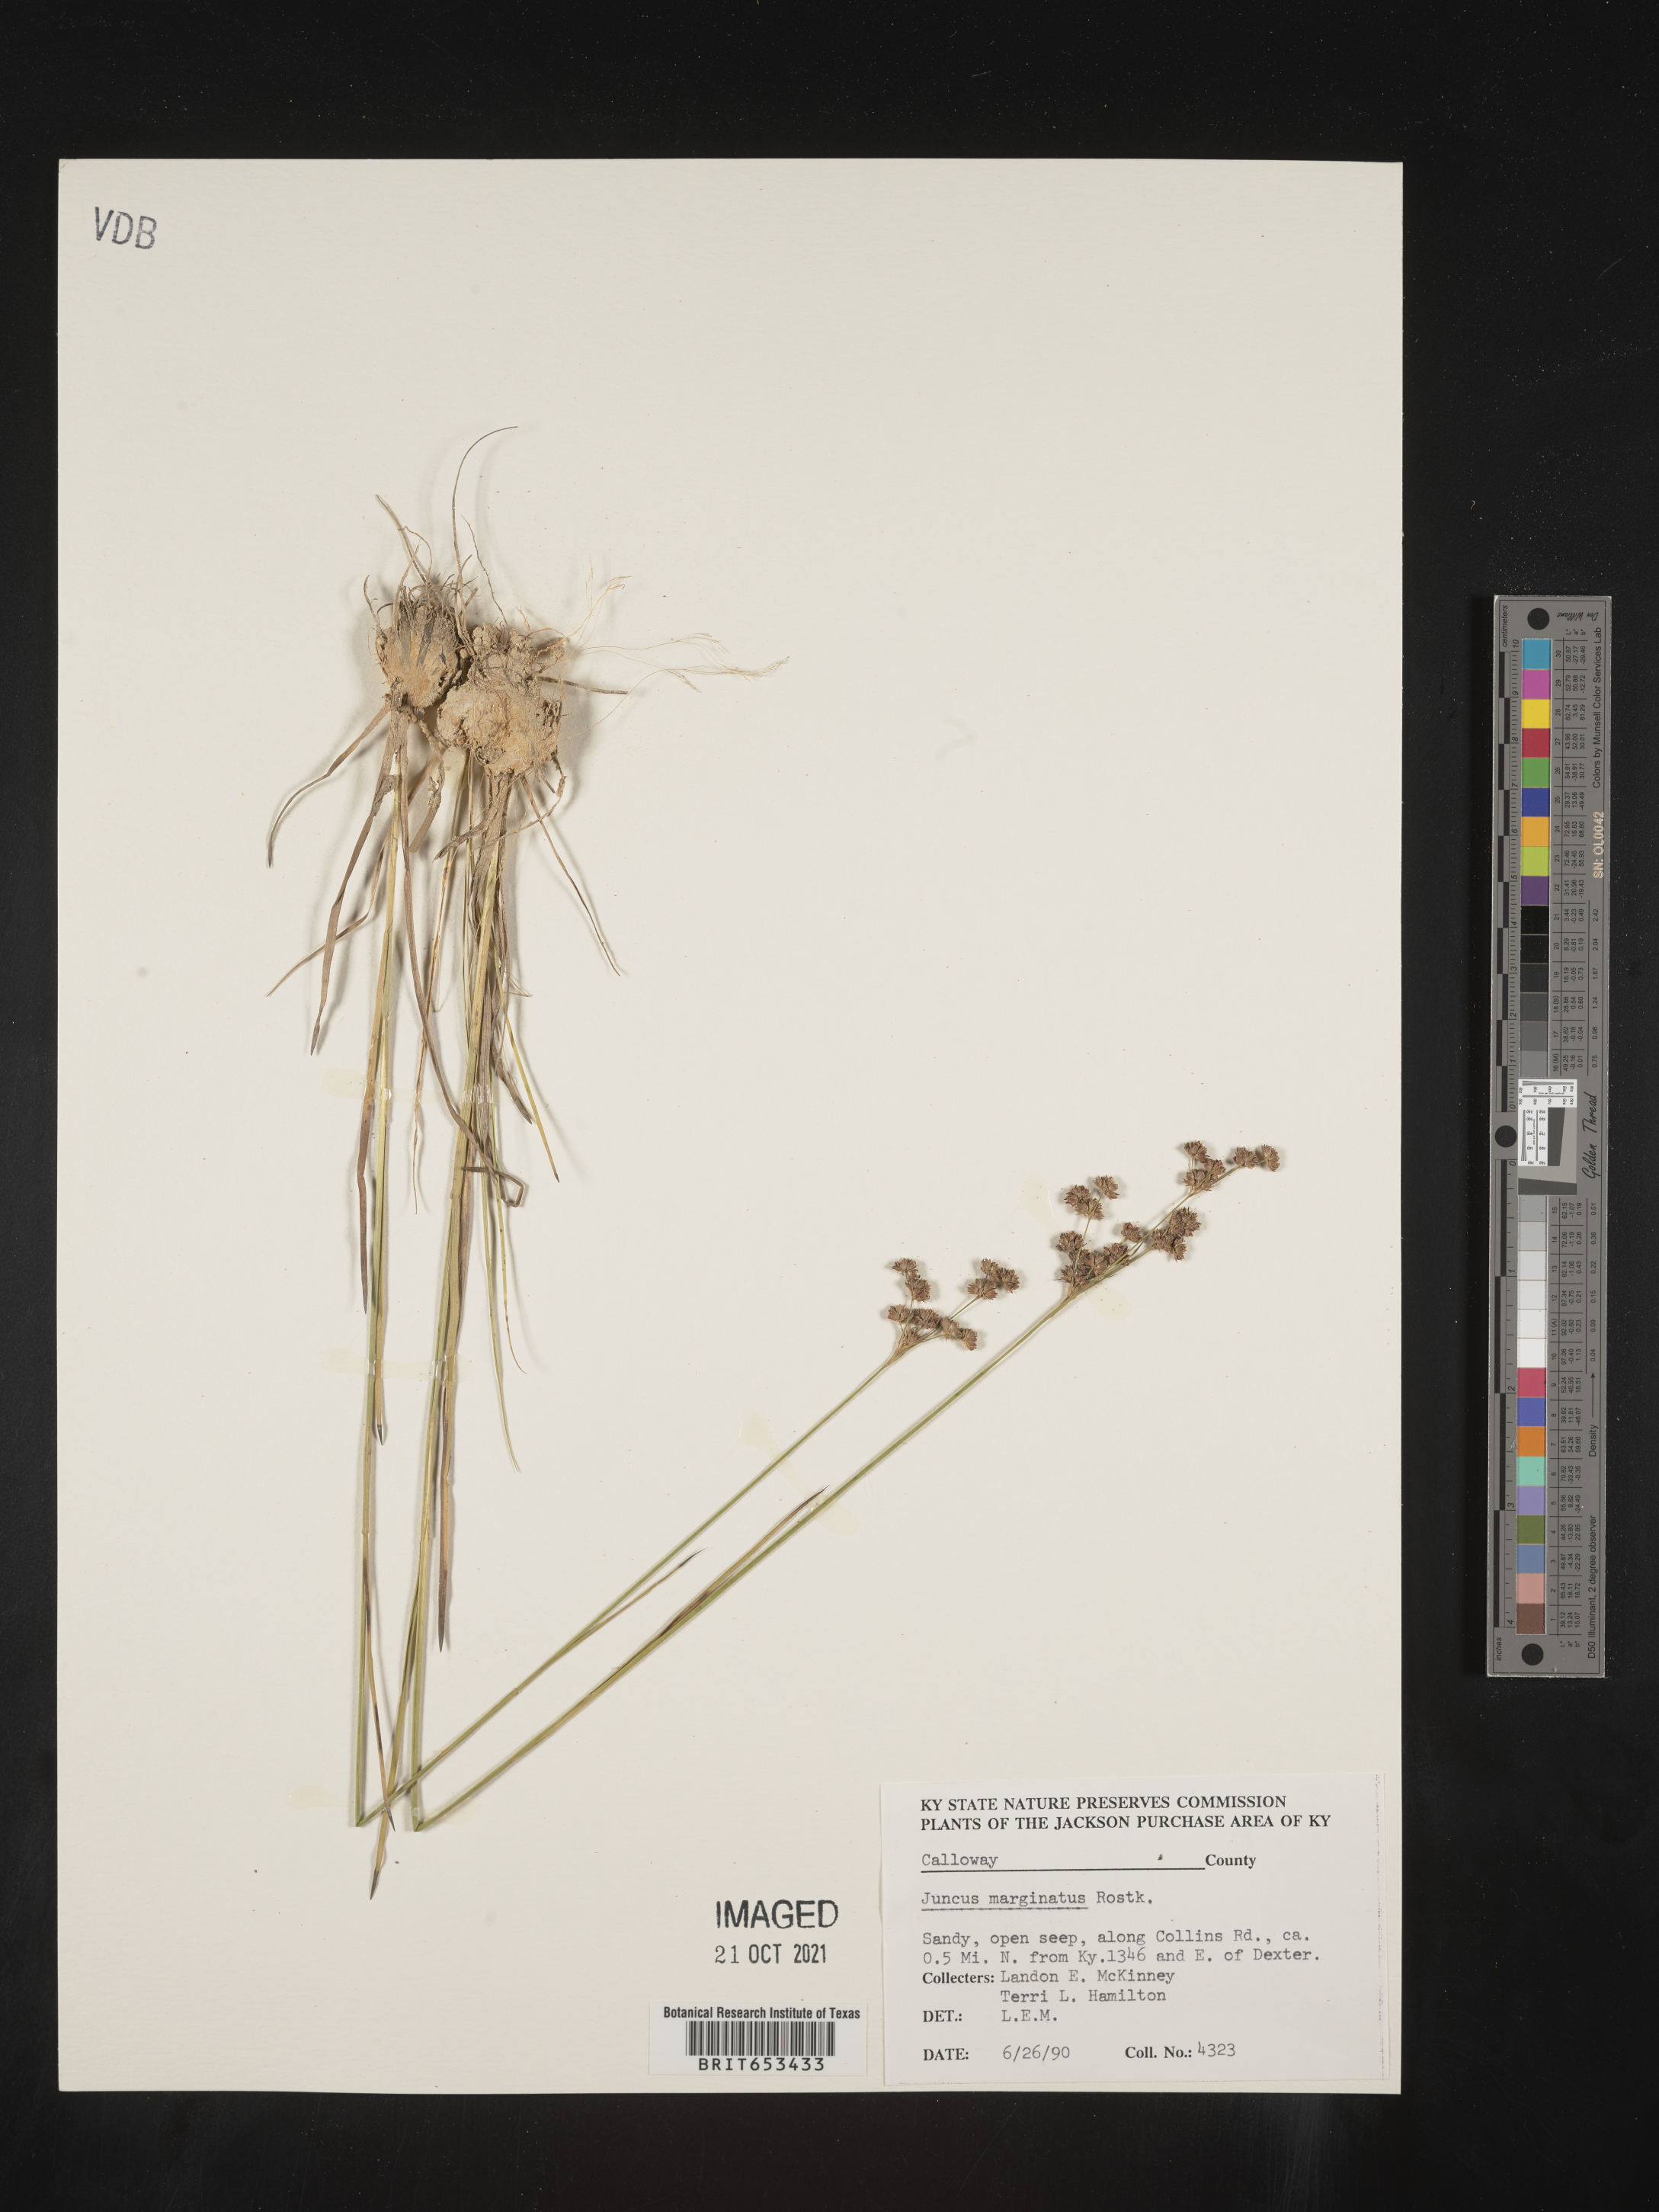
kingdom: Plantae
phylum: Tracheophyta
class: Liliopsida
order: Poales
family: Juncaceae
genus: Juncus
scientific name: Juncus marginatus
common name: Grass-leaf rush
